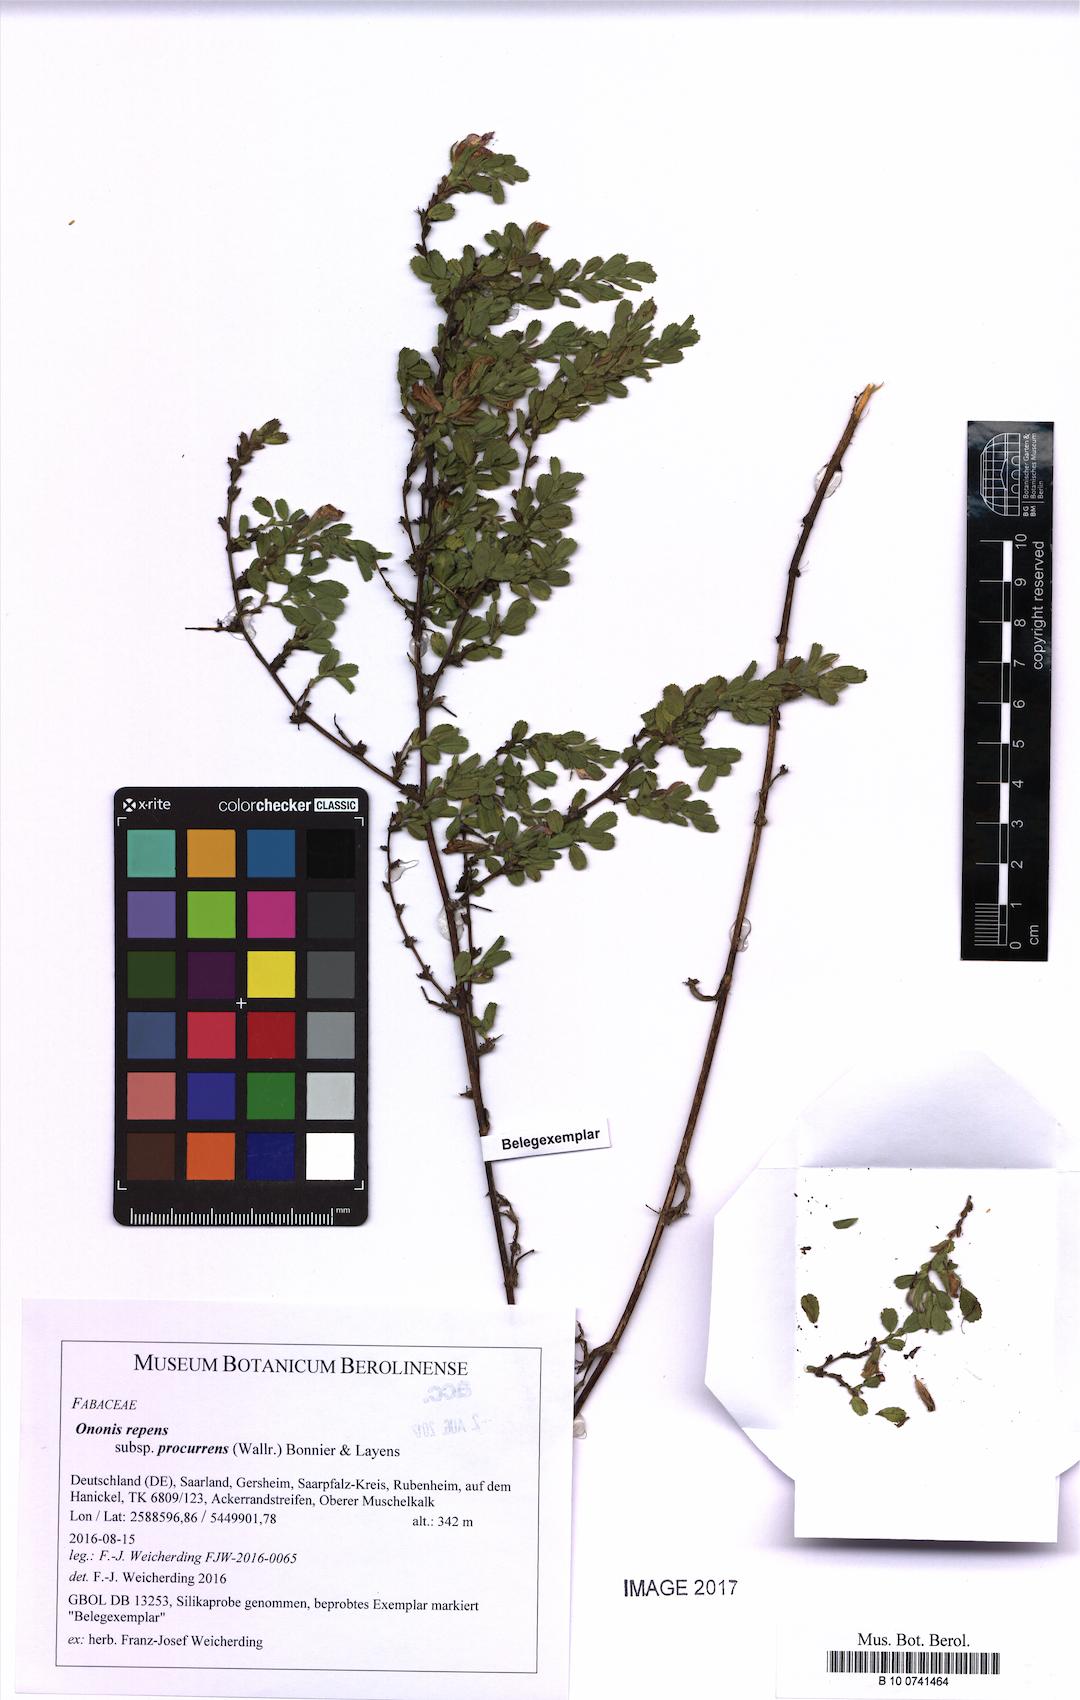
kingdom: Plantae
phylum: Tracheophyta
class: Magnoliopsida
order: Fabales
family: Fabaceae
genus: Ononis
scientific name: Ononis spinosa
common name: Spiny restharrow
